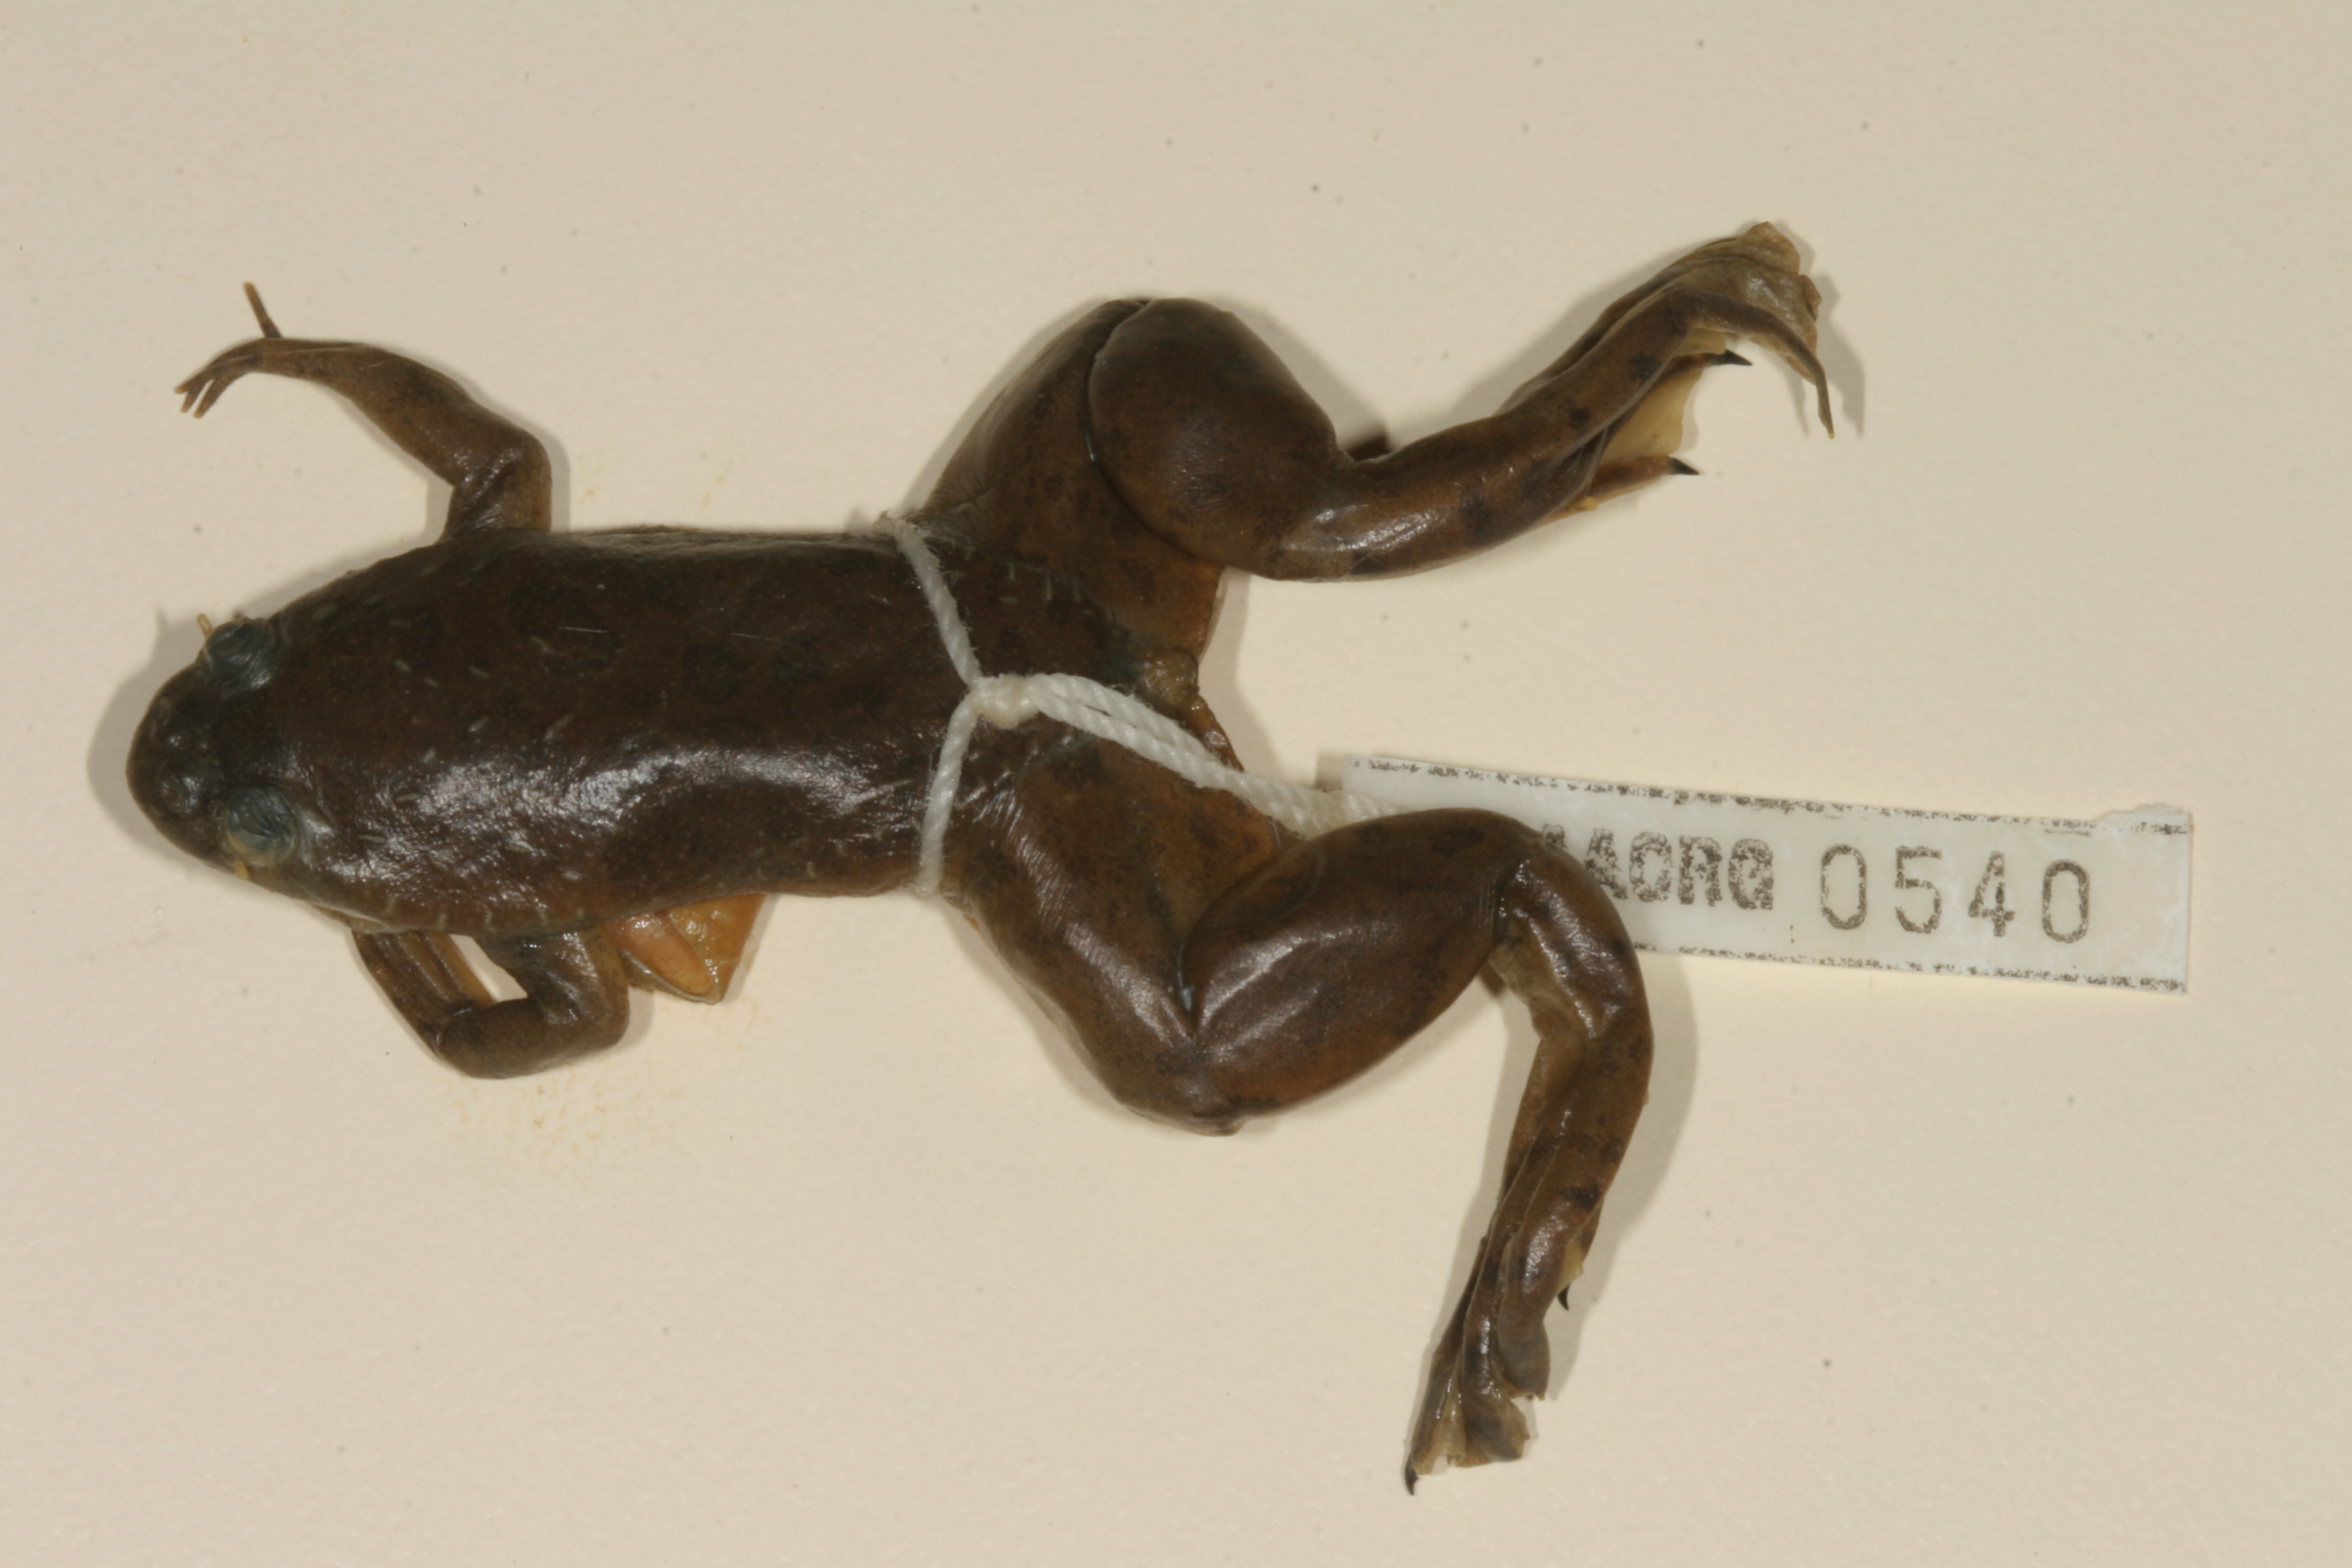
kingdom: Animalia
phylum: Chordata
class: Amphibia
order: Anura
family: Pipidae
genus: Xenopus
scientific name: Xenopus muelleri
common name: Muller's clawed frog
